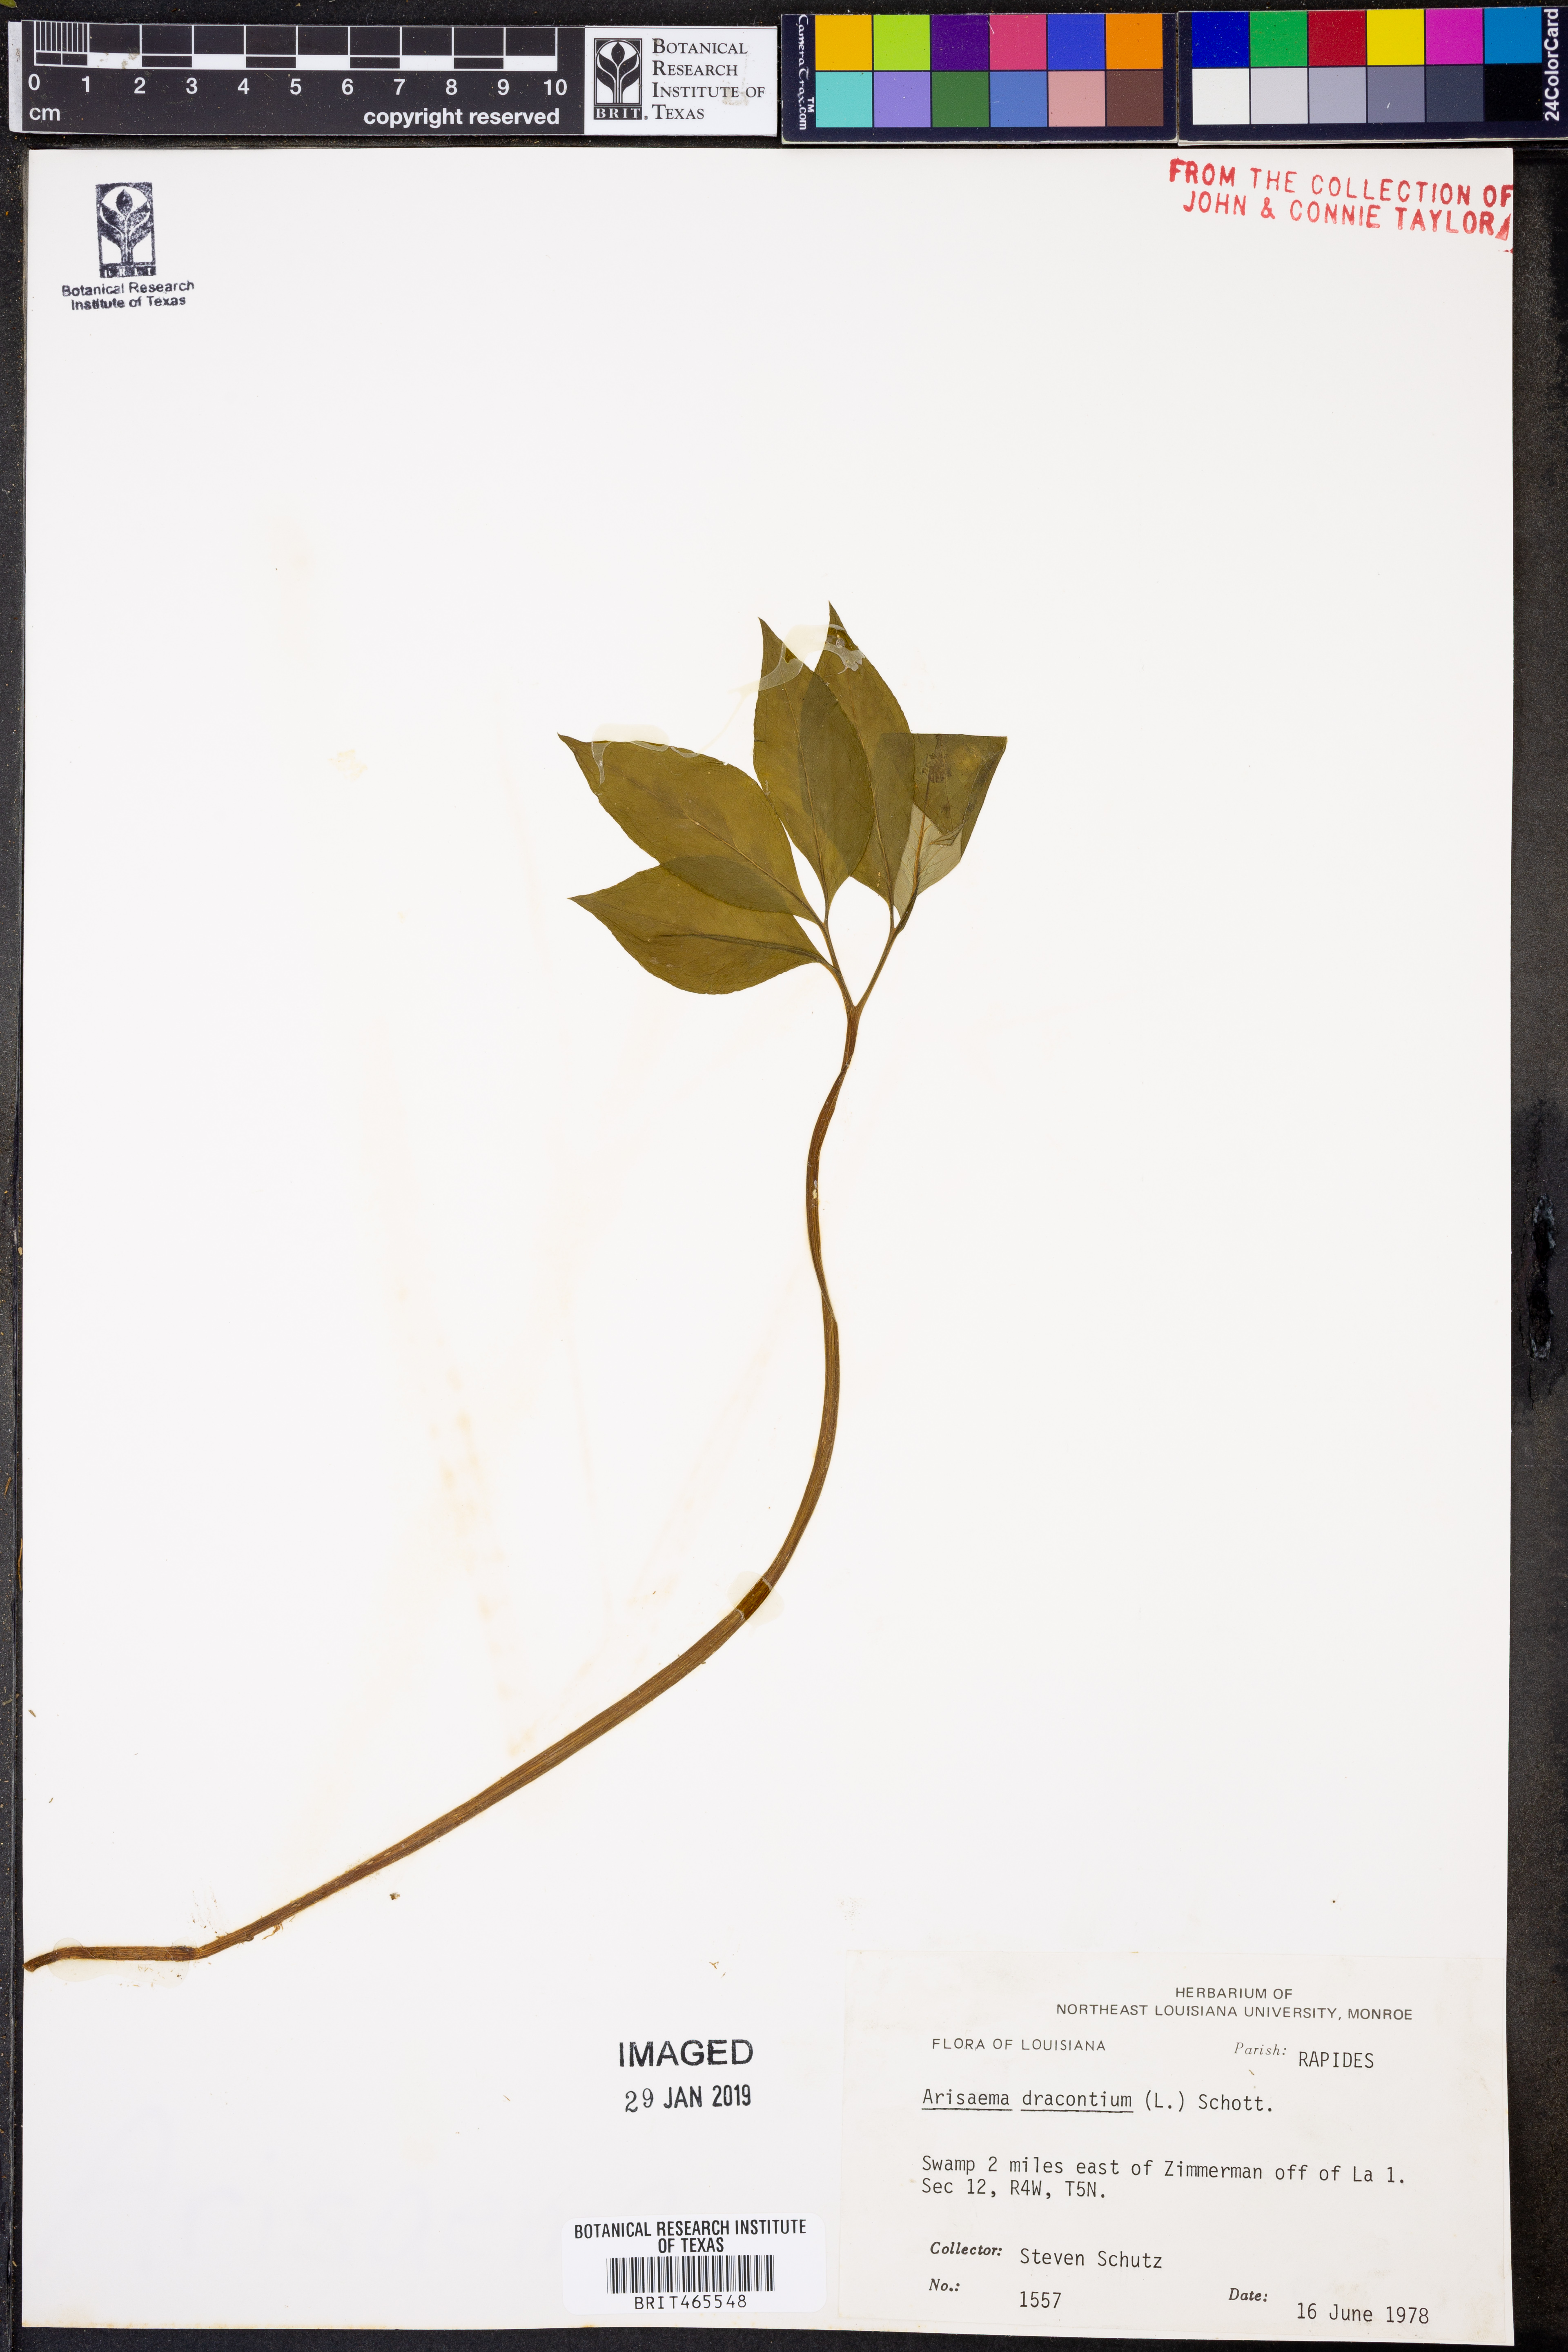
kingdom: Plantae
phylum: Tracheophyta
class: Liliopsida
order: Alismatales
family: Araceae
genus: Arisaema
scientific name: Arisaema dracontium
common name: Dragon-arum
